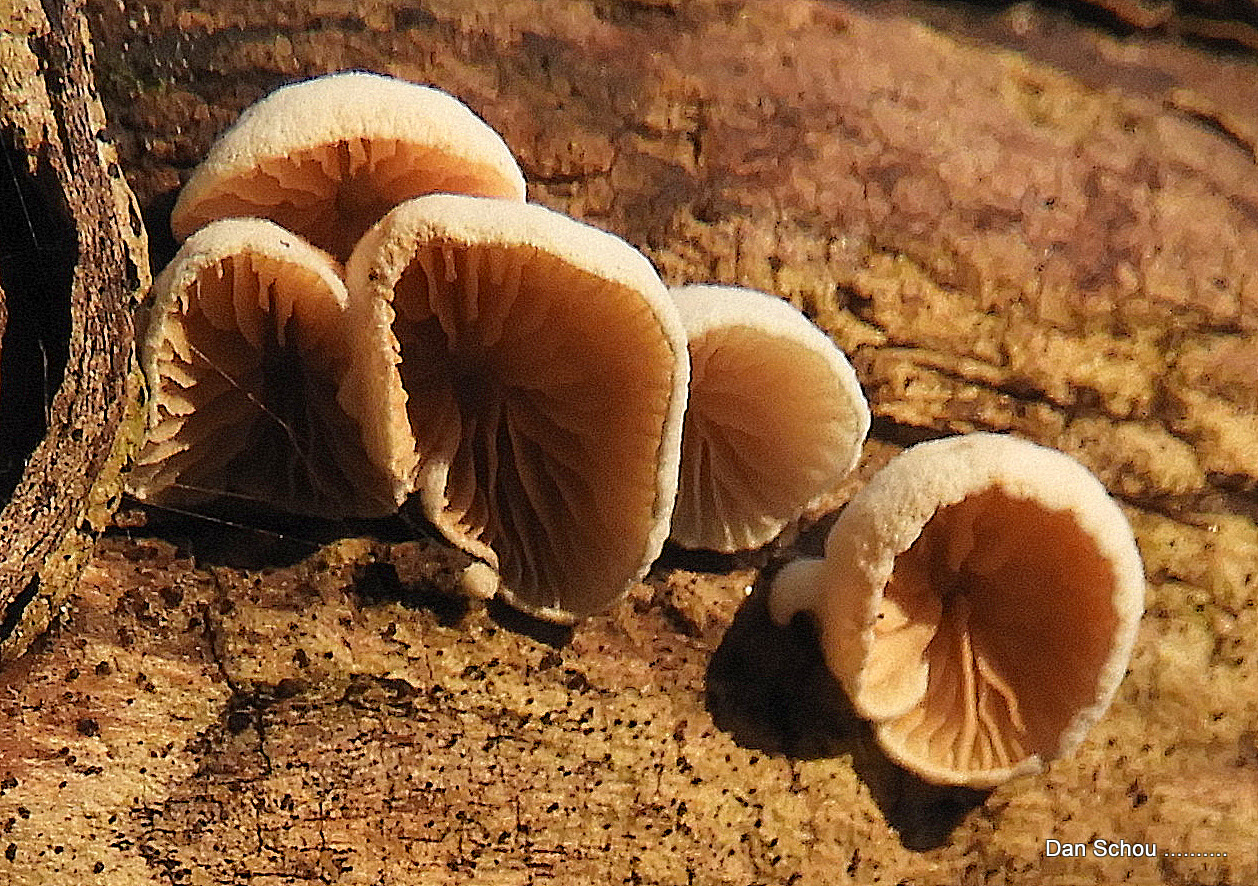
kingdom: Fungi
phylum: Basidiomycota
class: Agaricomycetes
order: Agaricales
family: Crepidotaceae
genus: Crepidotus
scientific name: Crepidotus
